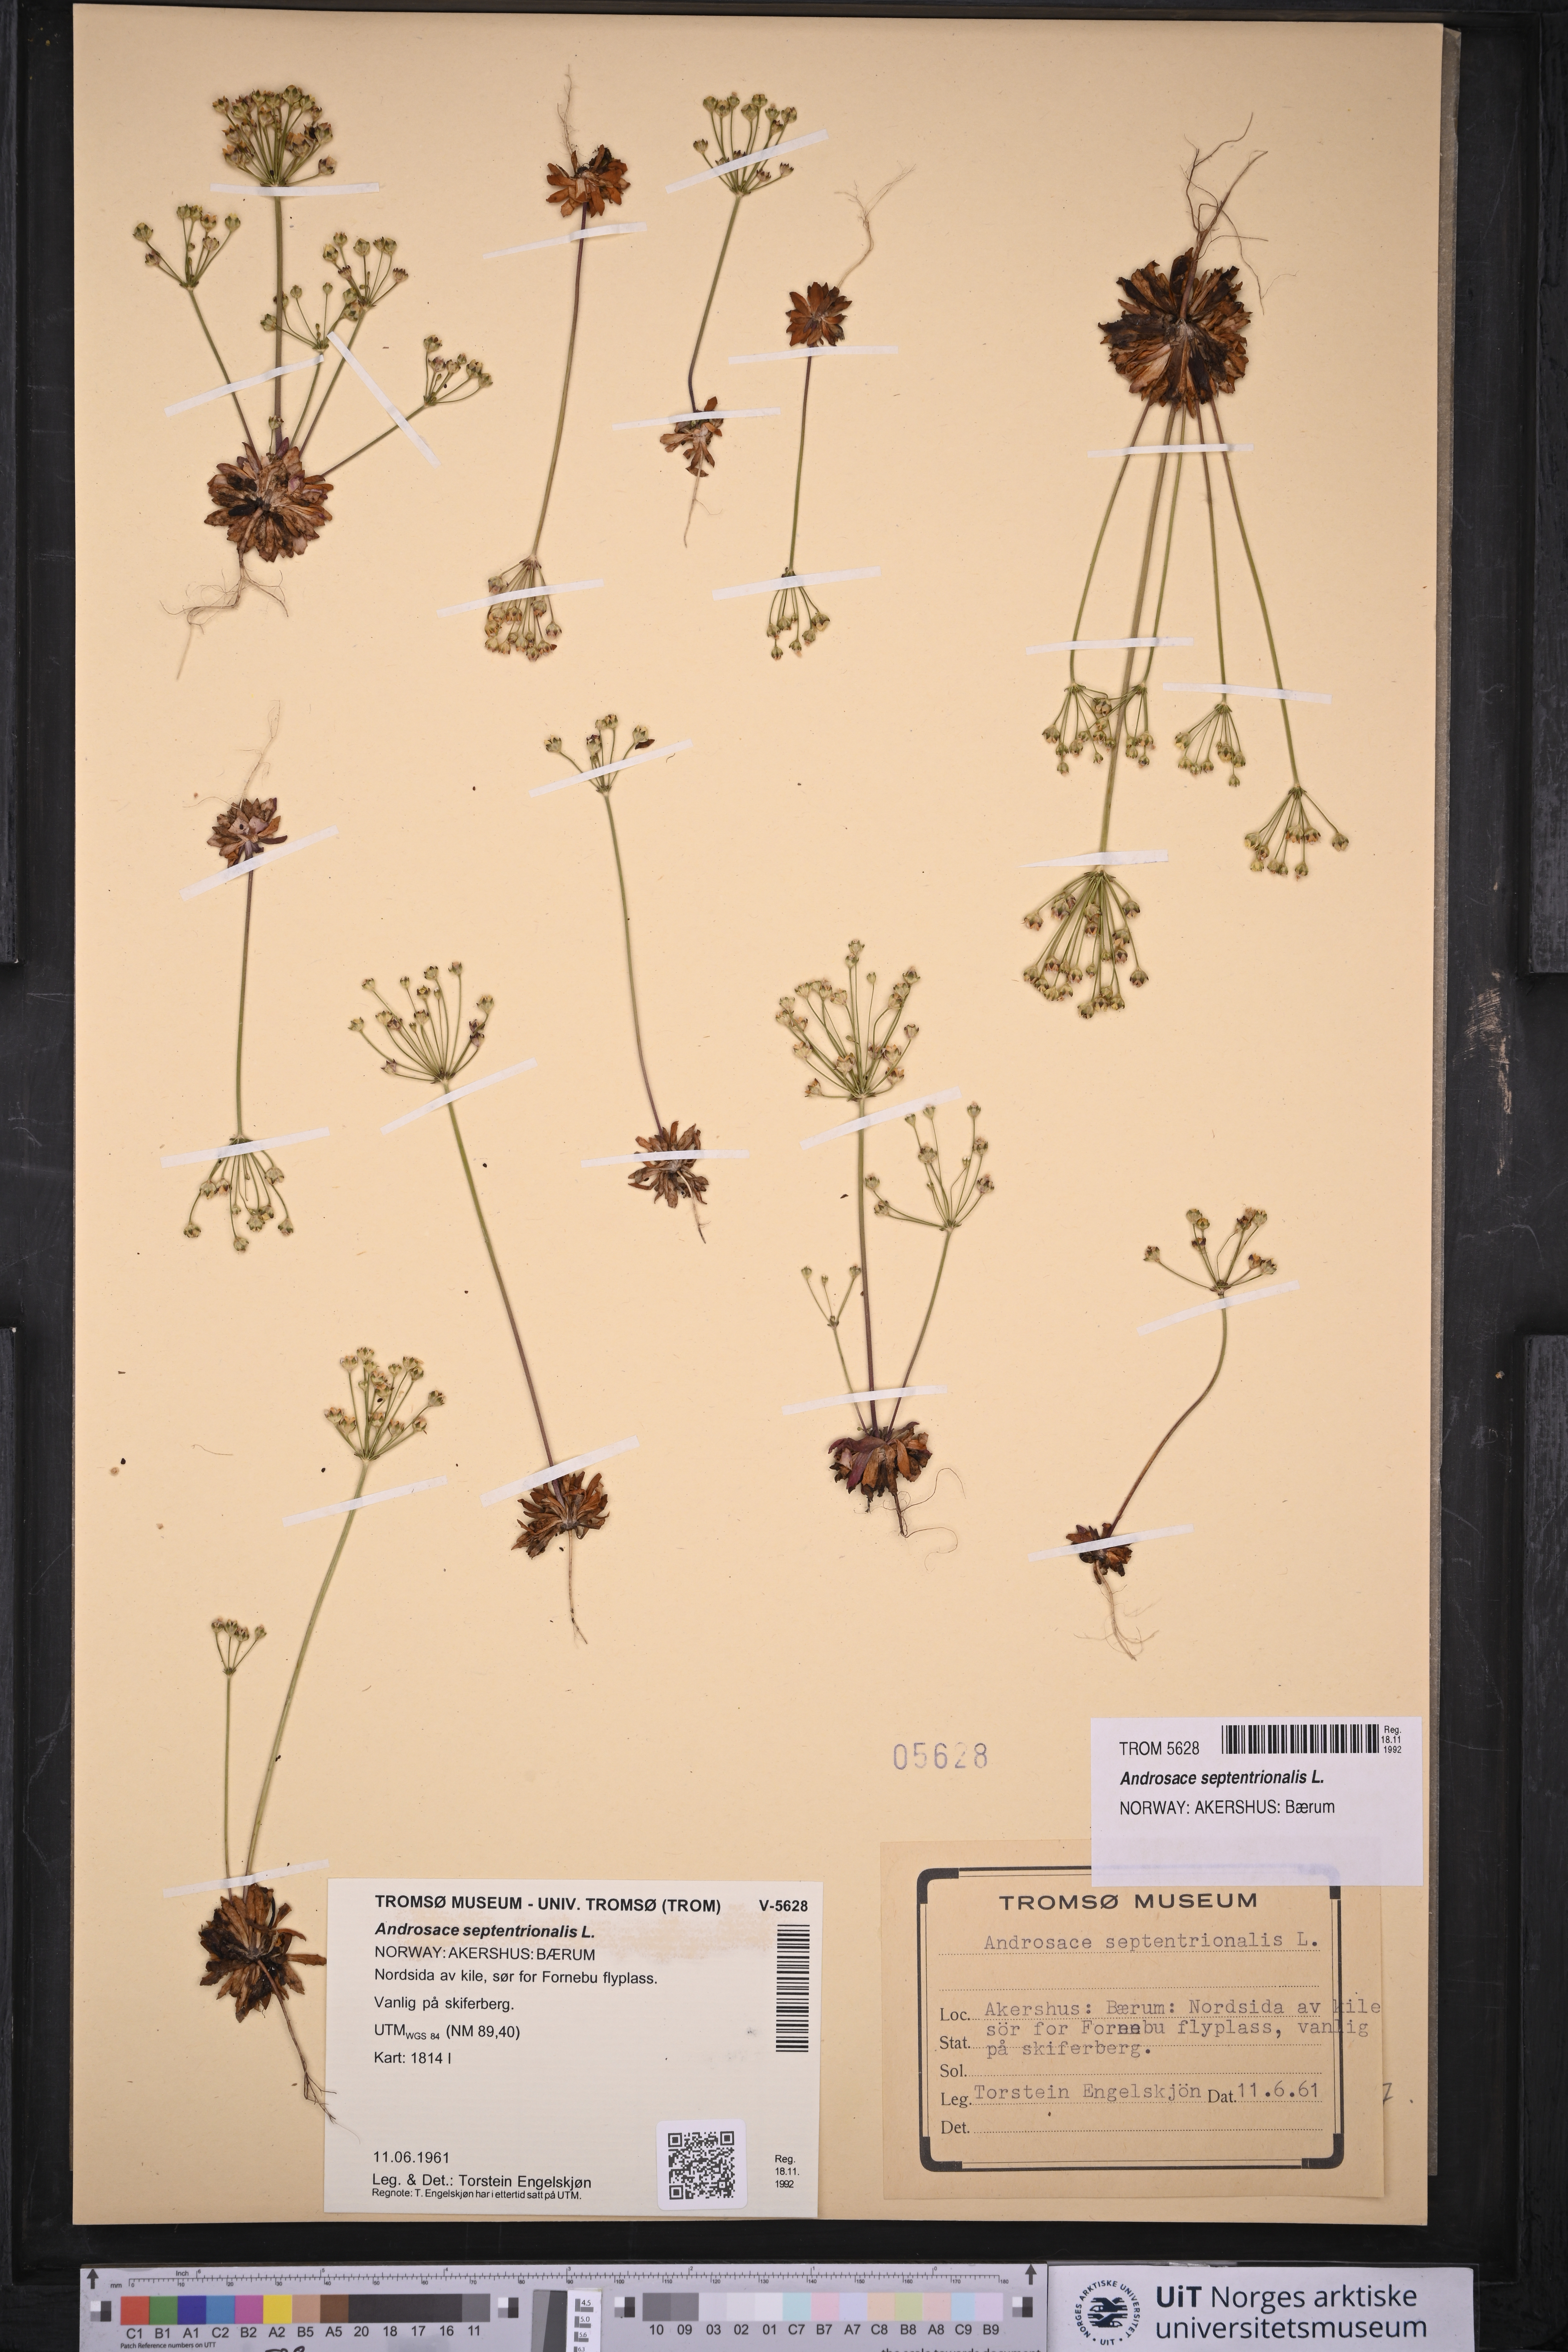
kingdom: Plantae
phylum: Tracheophyta
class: Magnoliopsida
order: Ericales
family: Primulaceae
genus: Androsace
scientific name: Androsace septentrionalis
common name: Hairy northern fairy-candelabra
